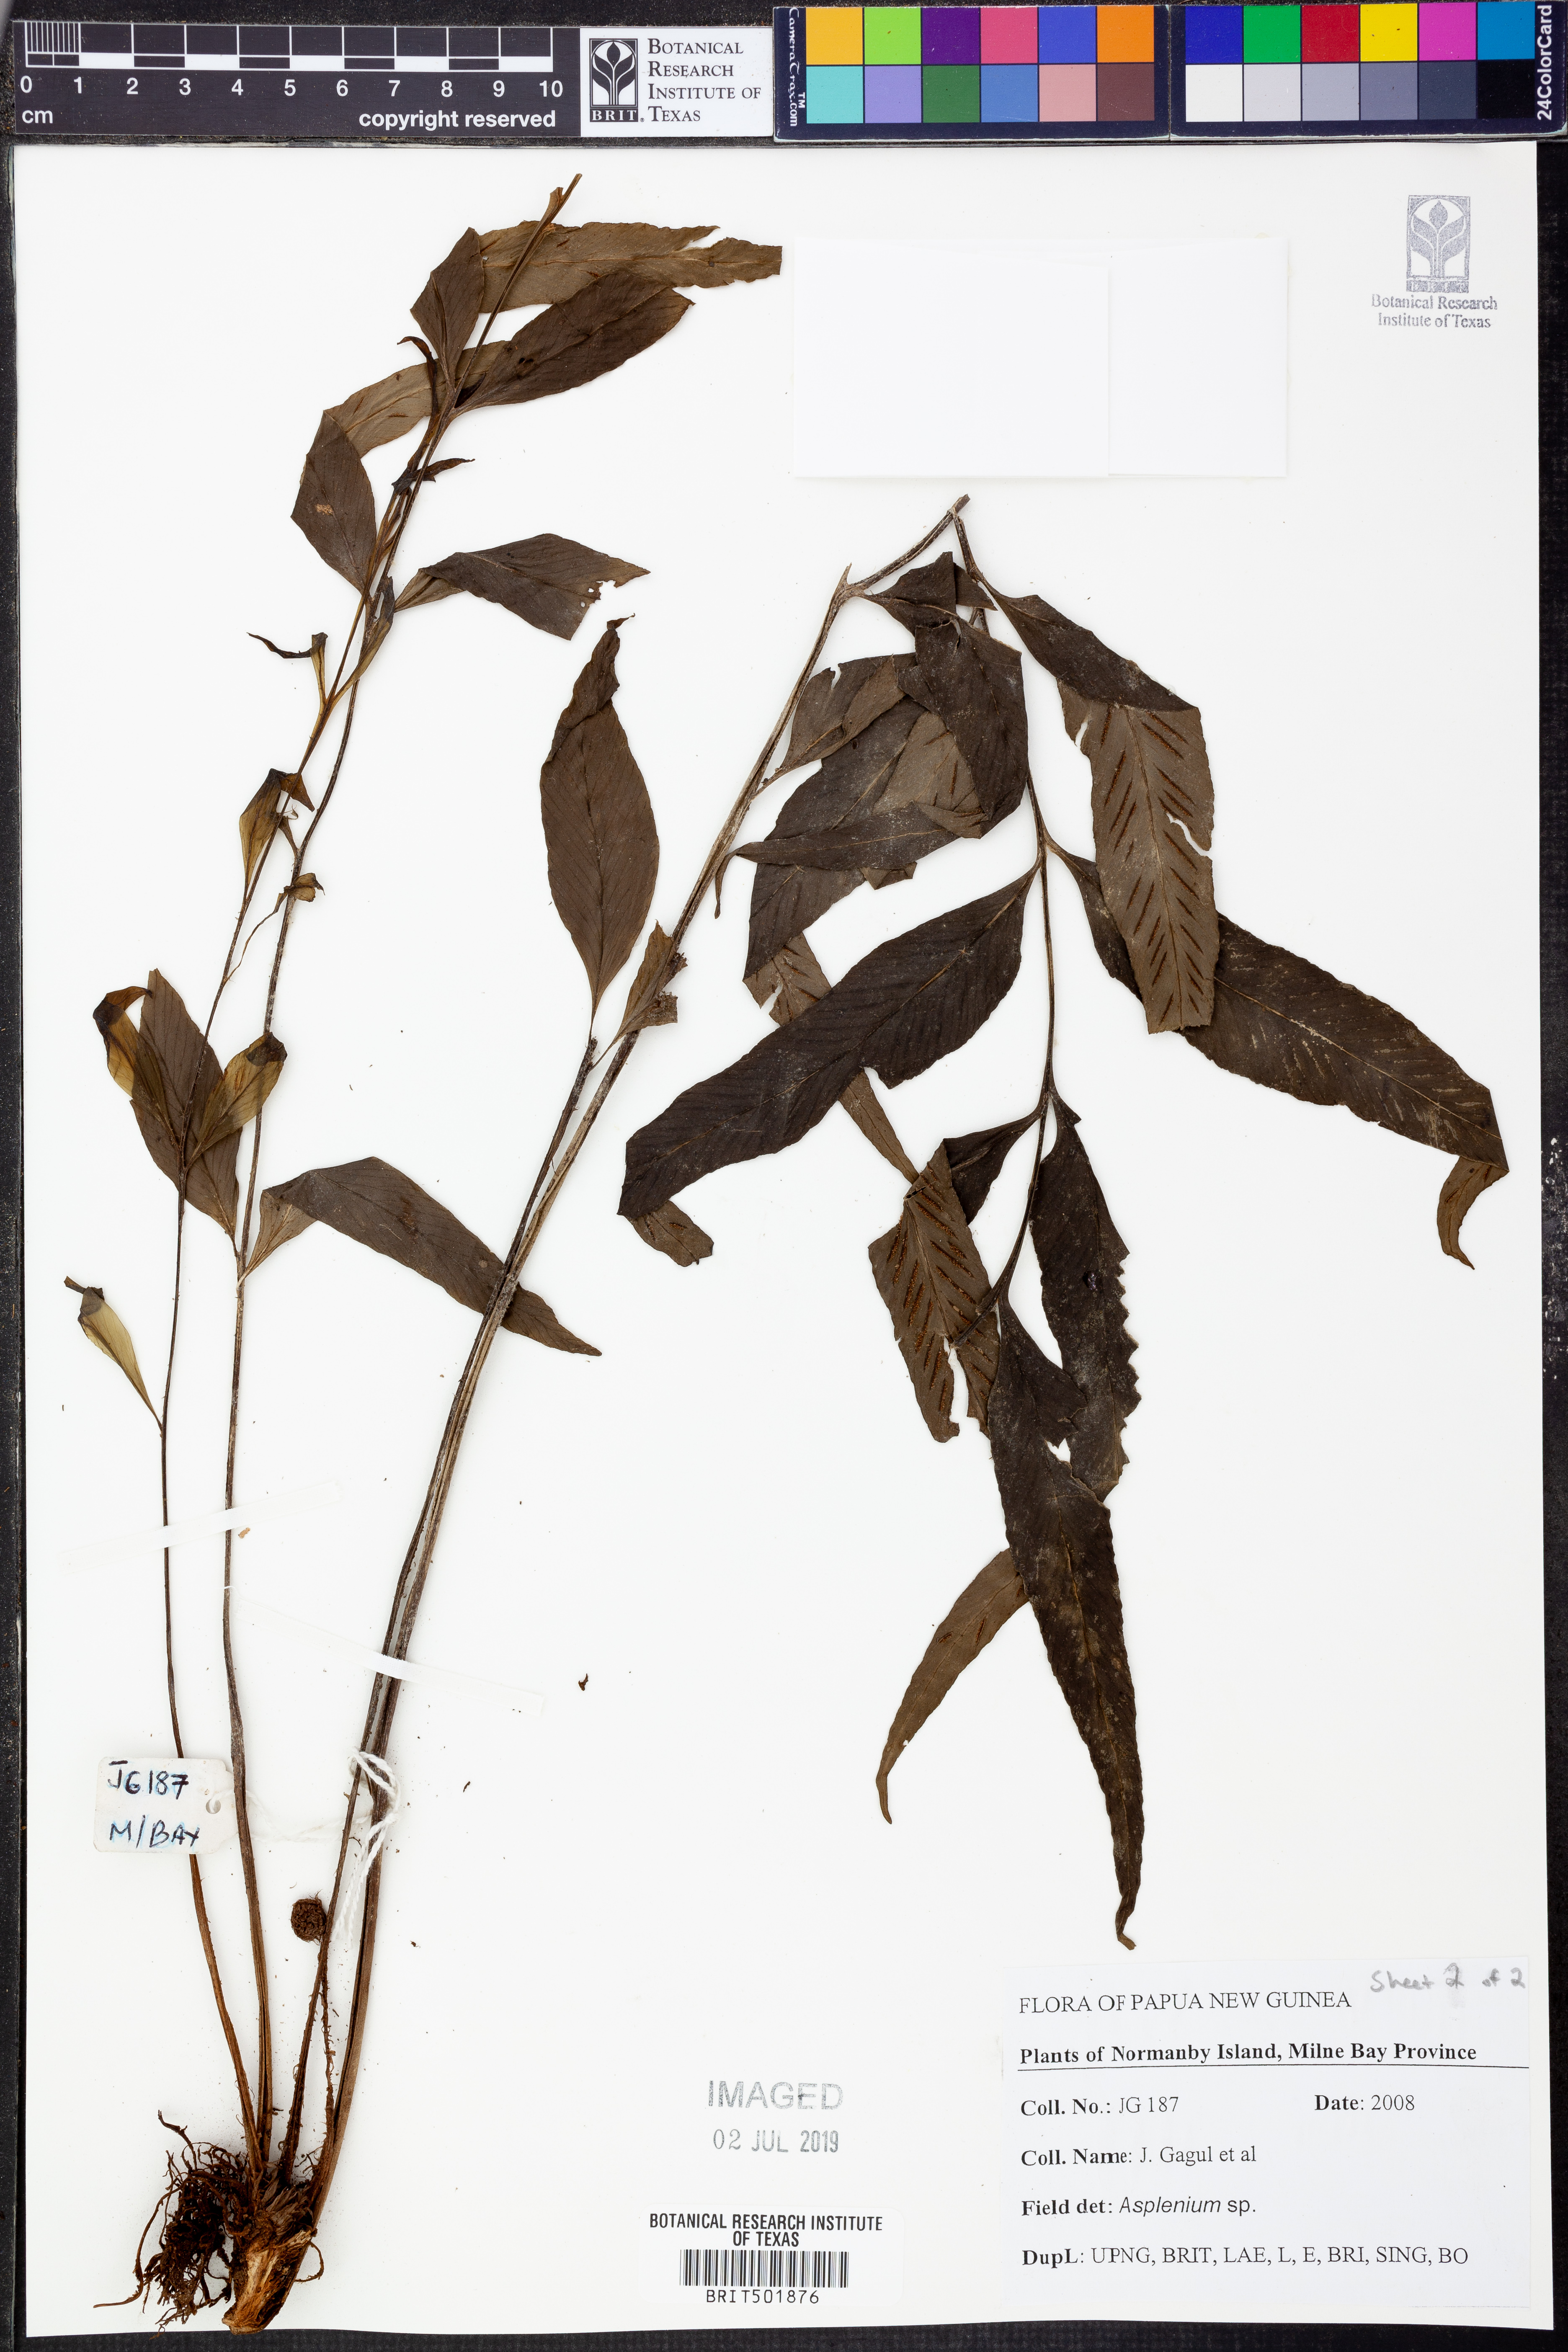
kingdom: Plantae
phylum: Tracheophyta
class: Polypodiopsida
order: Polypodiales
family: Aspleniaceae
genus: Asplenium
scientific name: Asplenium
